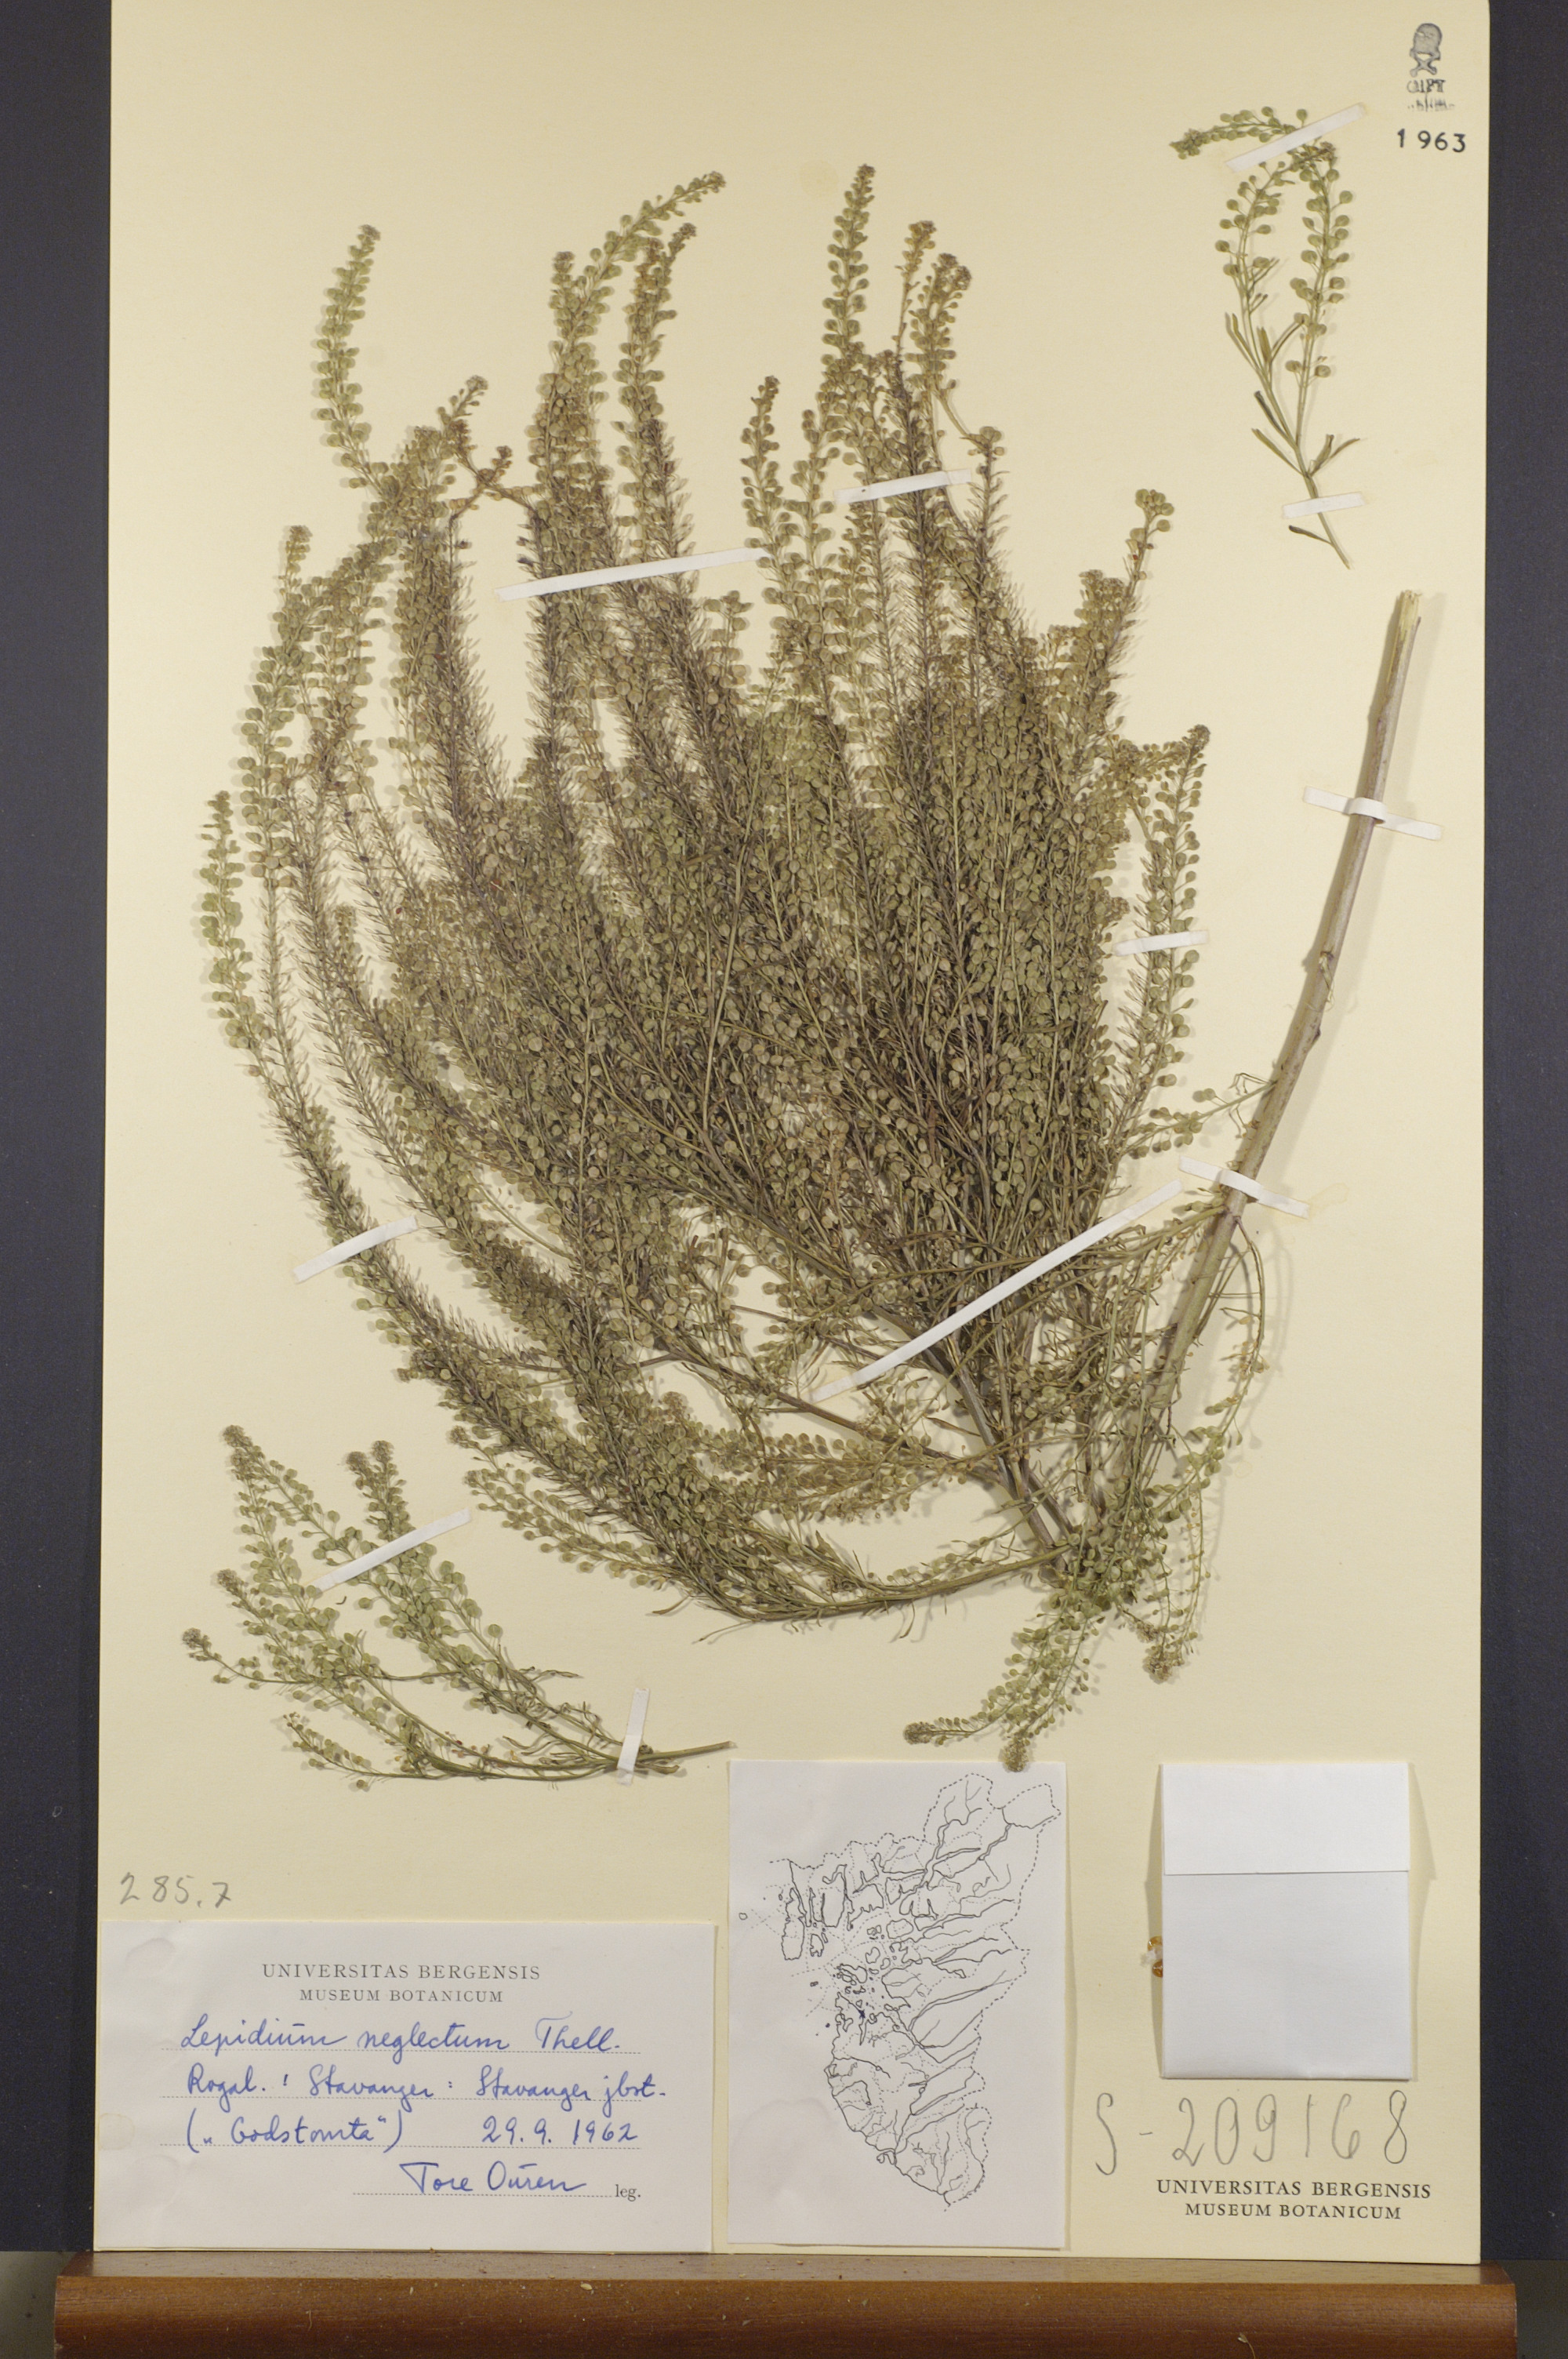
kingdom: Plantae
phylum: Tracheophyta
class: Magnoliopsida
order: Brassicales
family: Brassicaceae
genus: Lepidium
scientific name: Lepidium densiflorum
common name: Miner's pepperwort
